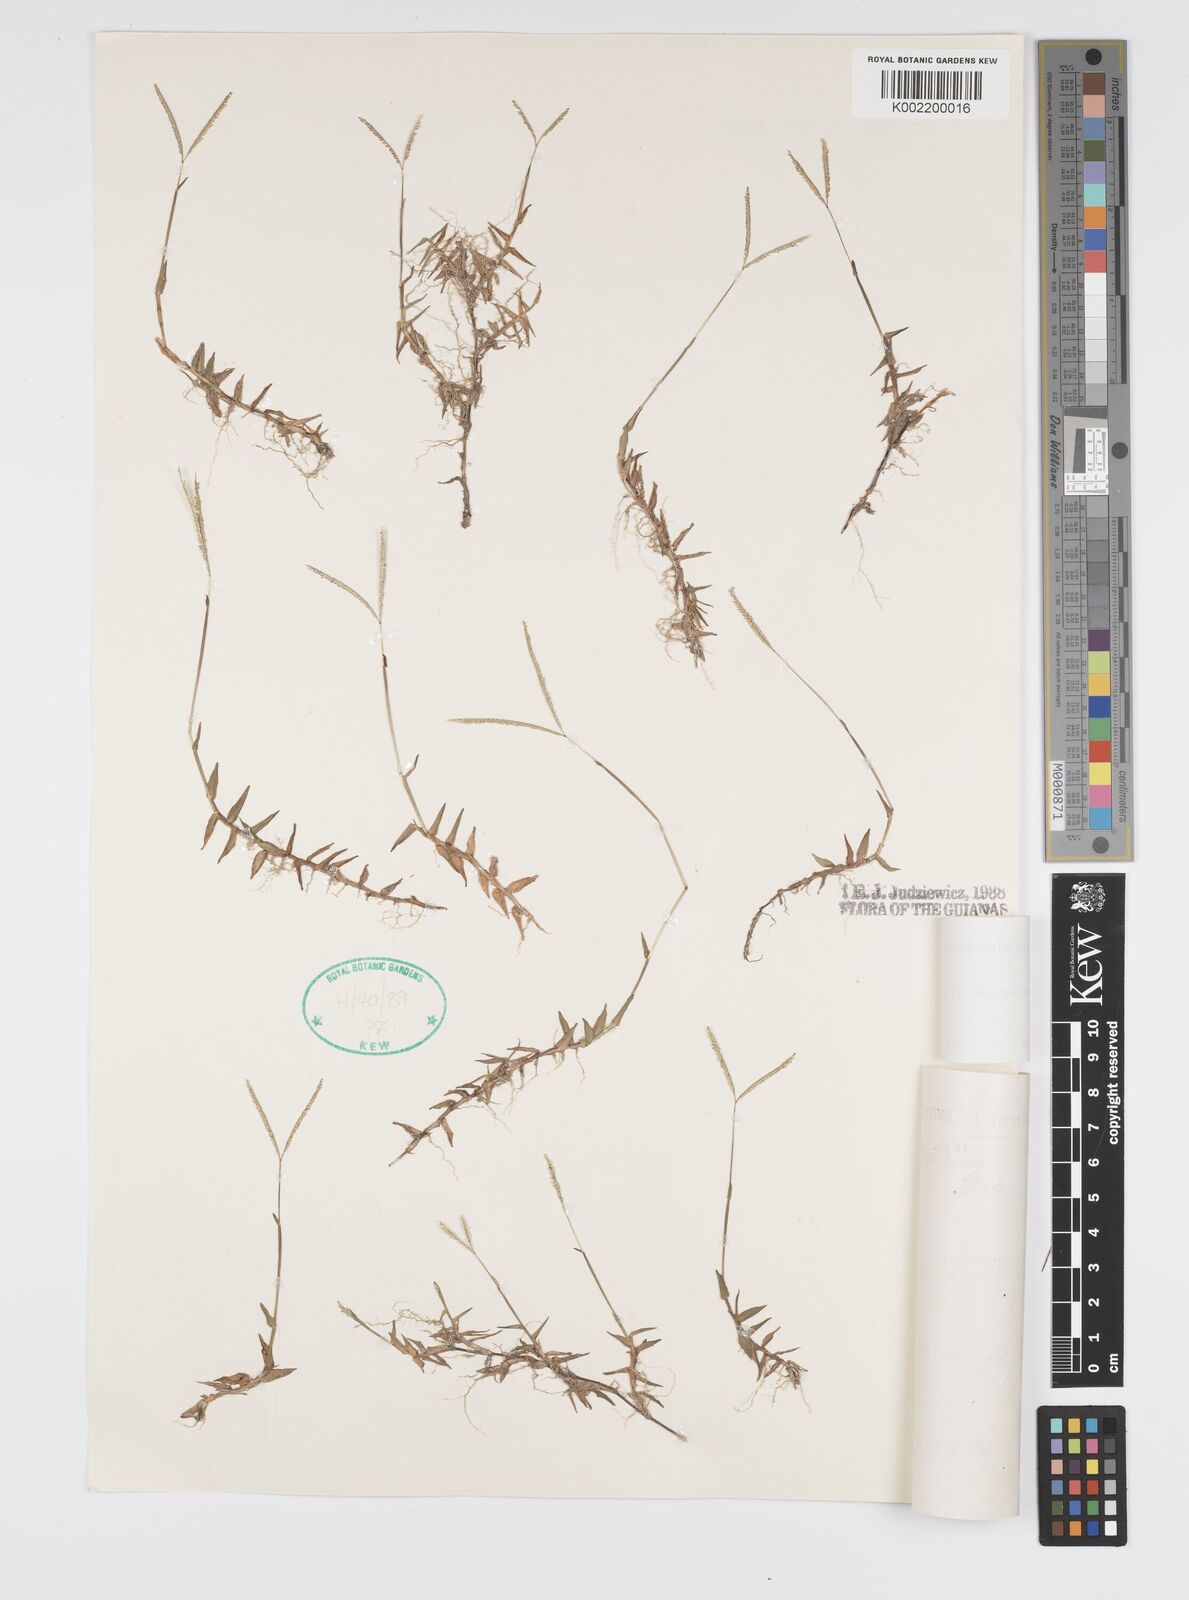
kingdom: Plantae
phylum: Tracheophyta
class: Liliopsida
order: Poales
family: Poaceae
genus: Digitaria
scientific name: Digitaria fuscescens
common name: Yellow crabgrass
